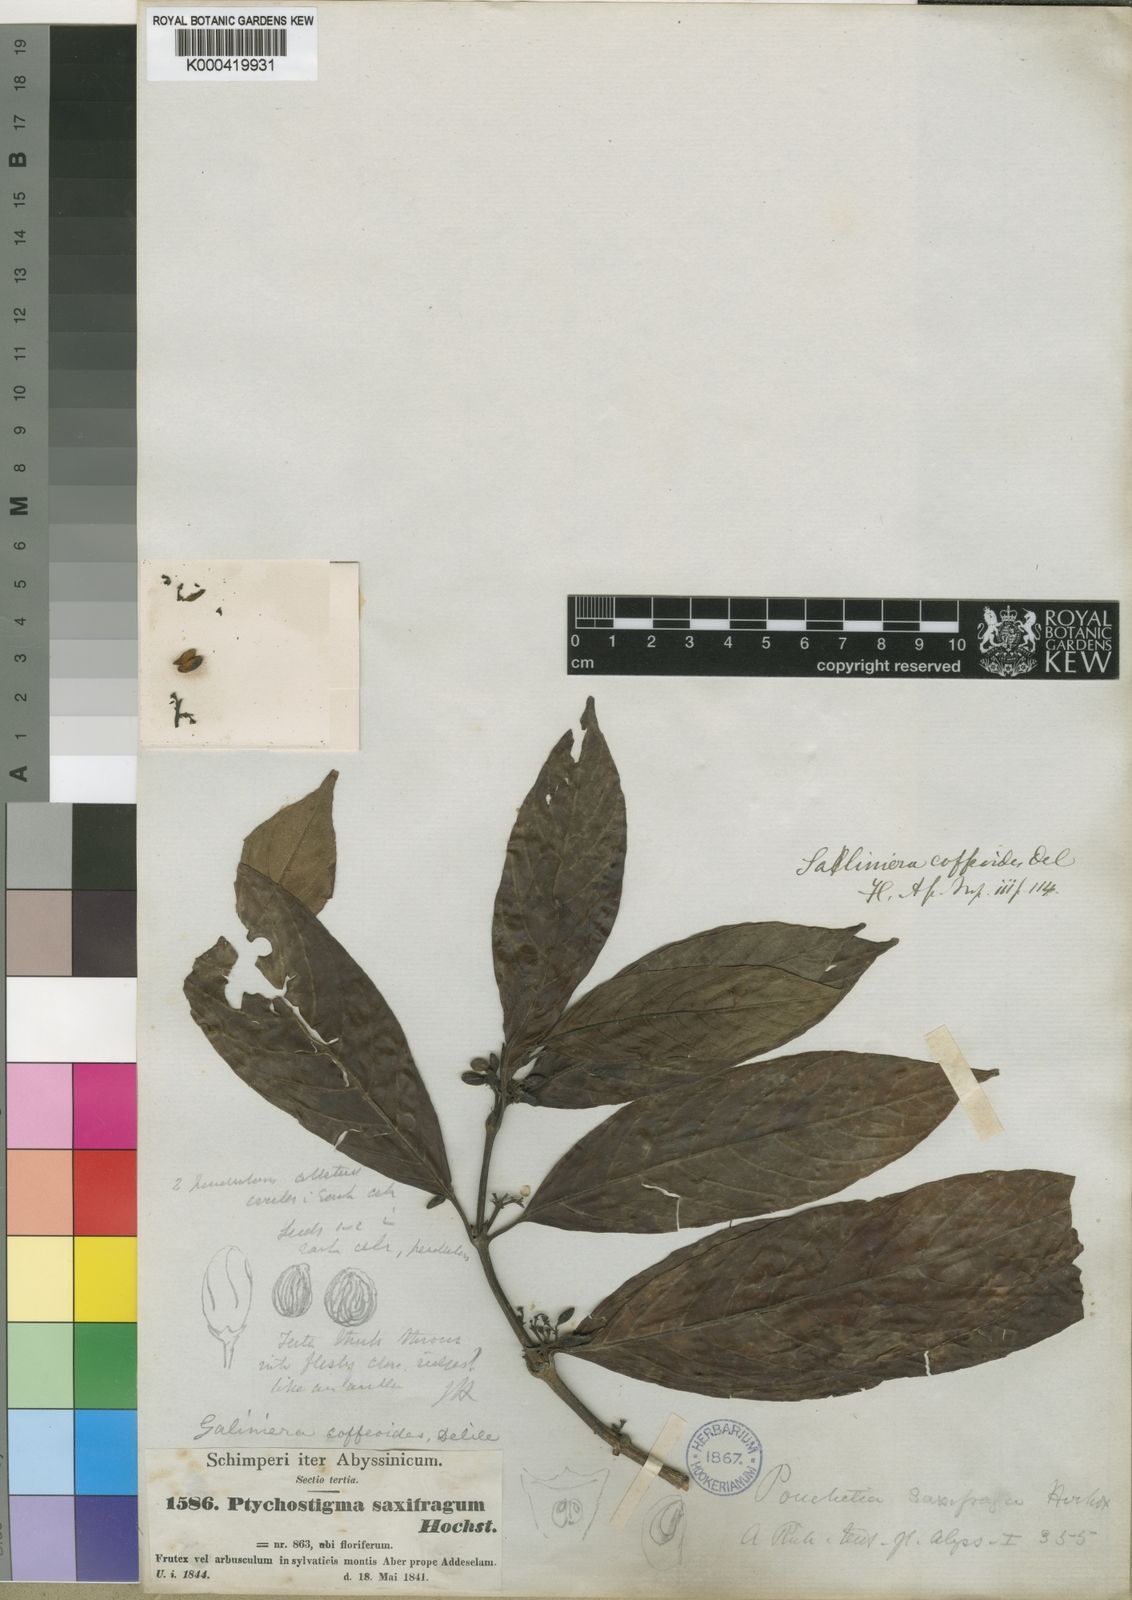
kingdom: Plantae
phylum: Tracheophyta
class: Magnoliopsida
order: Gentianales
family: Rubiaceae
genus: Galiniera
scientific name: Galiniera saxifraga
